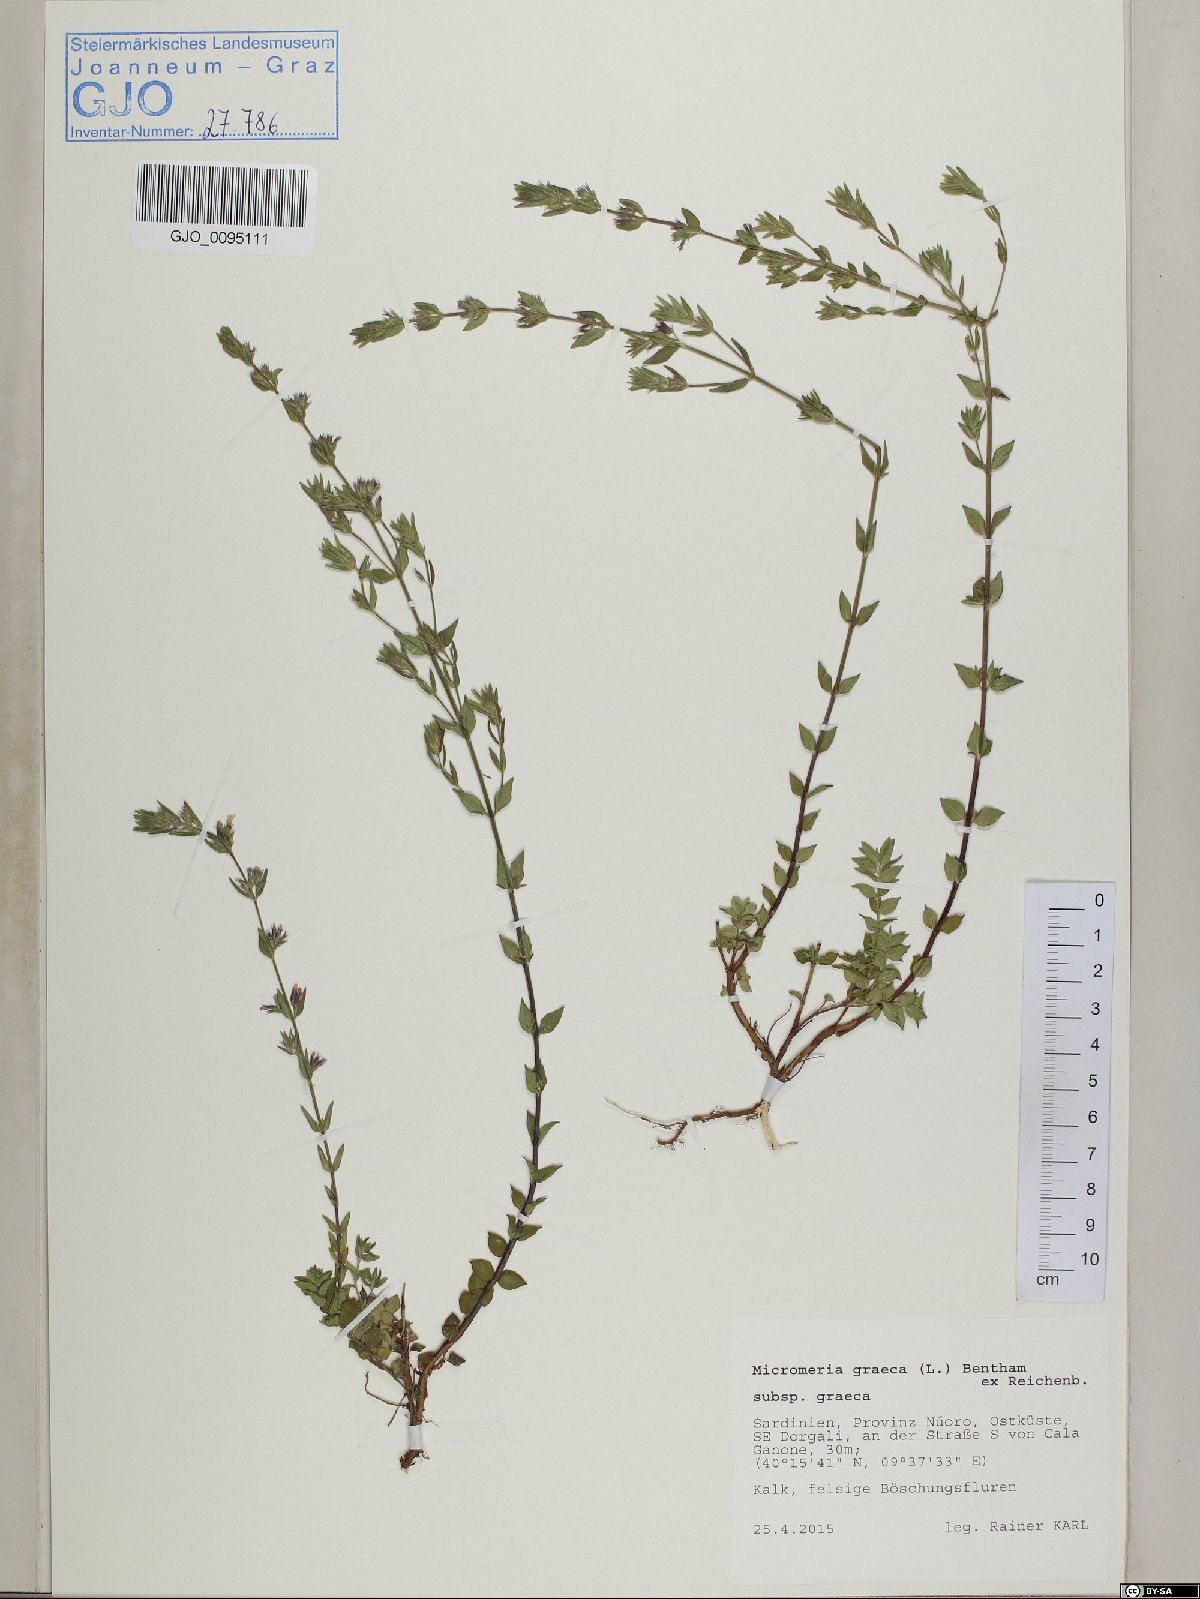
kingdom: Plantae
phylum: Tracheophyta
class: Magnoliopsida
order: Lamiales
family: Lamiaceae
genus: Micromeria
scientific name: Micromeria graeca
